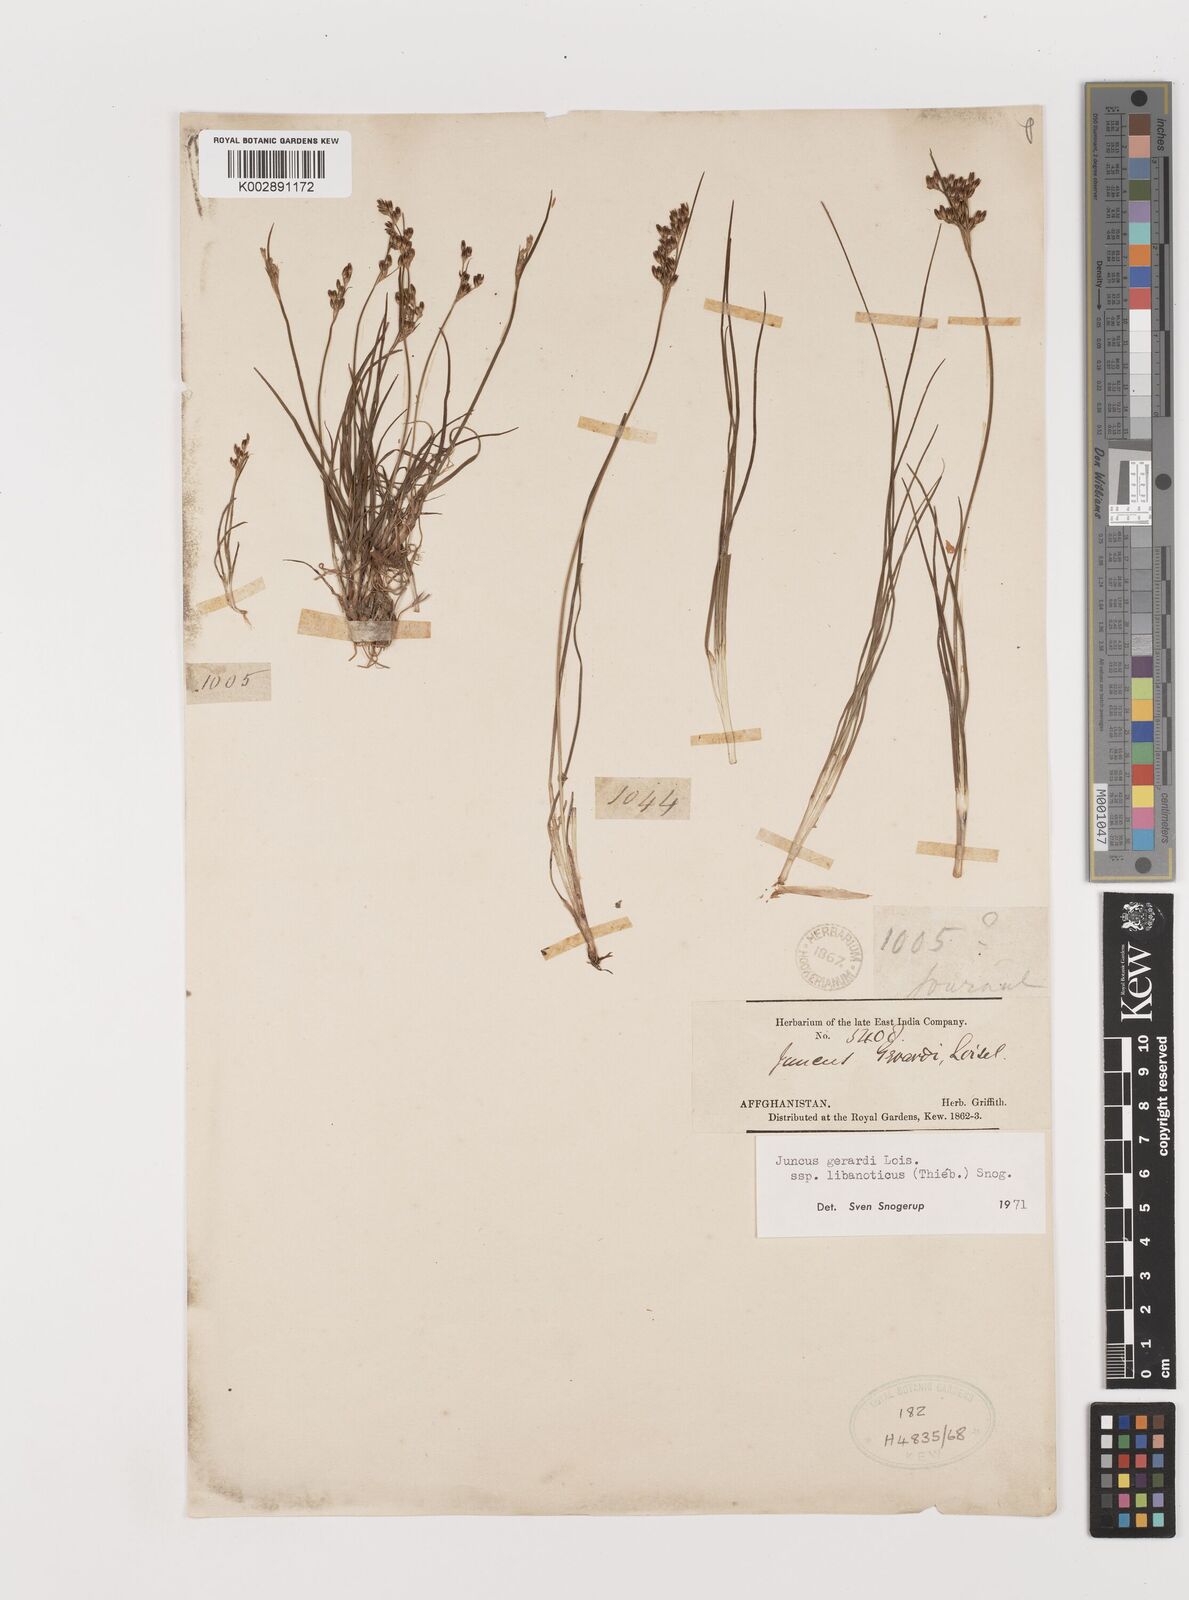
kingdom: Plantae
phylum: Tracheophyta
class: Liliopsida
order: Poales
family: Juncaceae
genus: Juncus
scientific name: Juncus persicus
